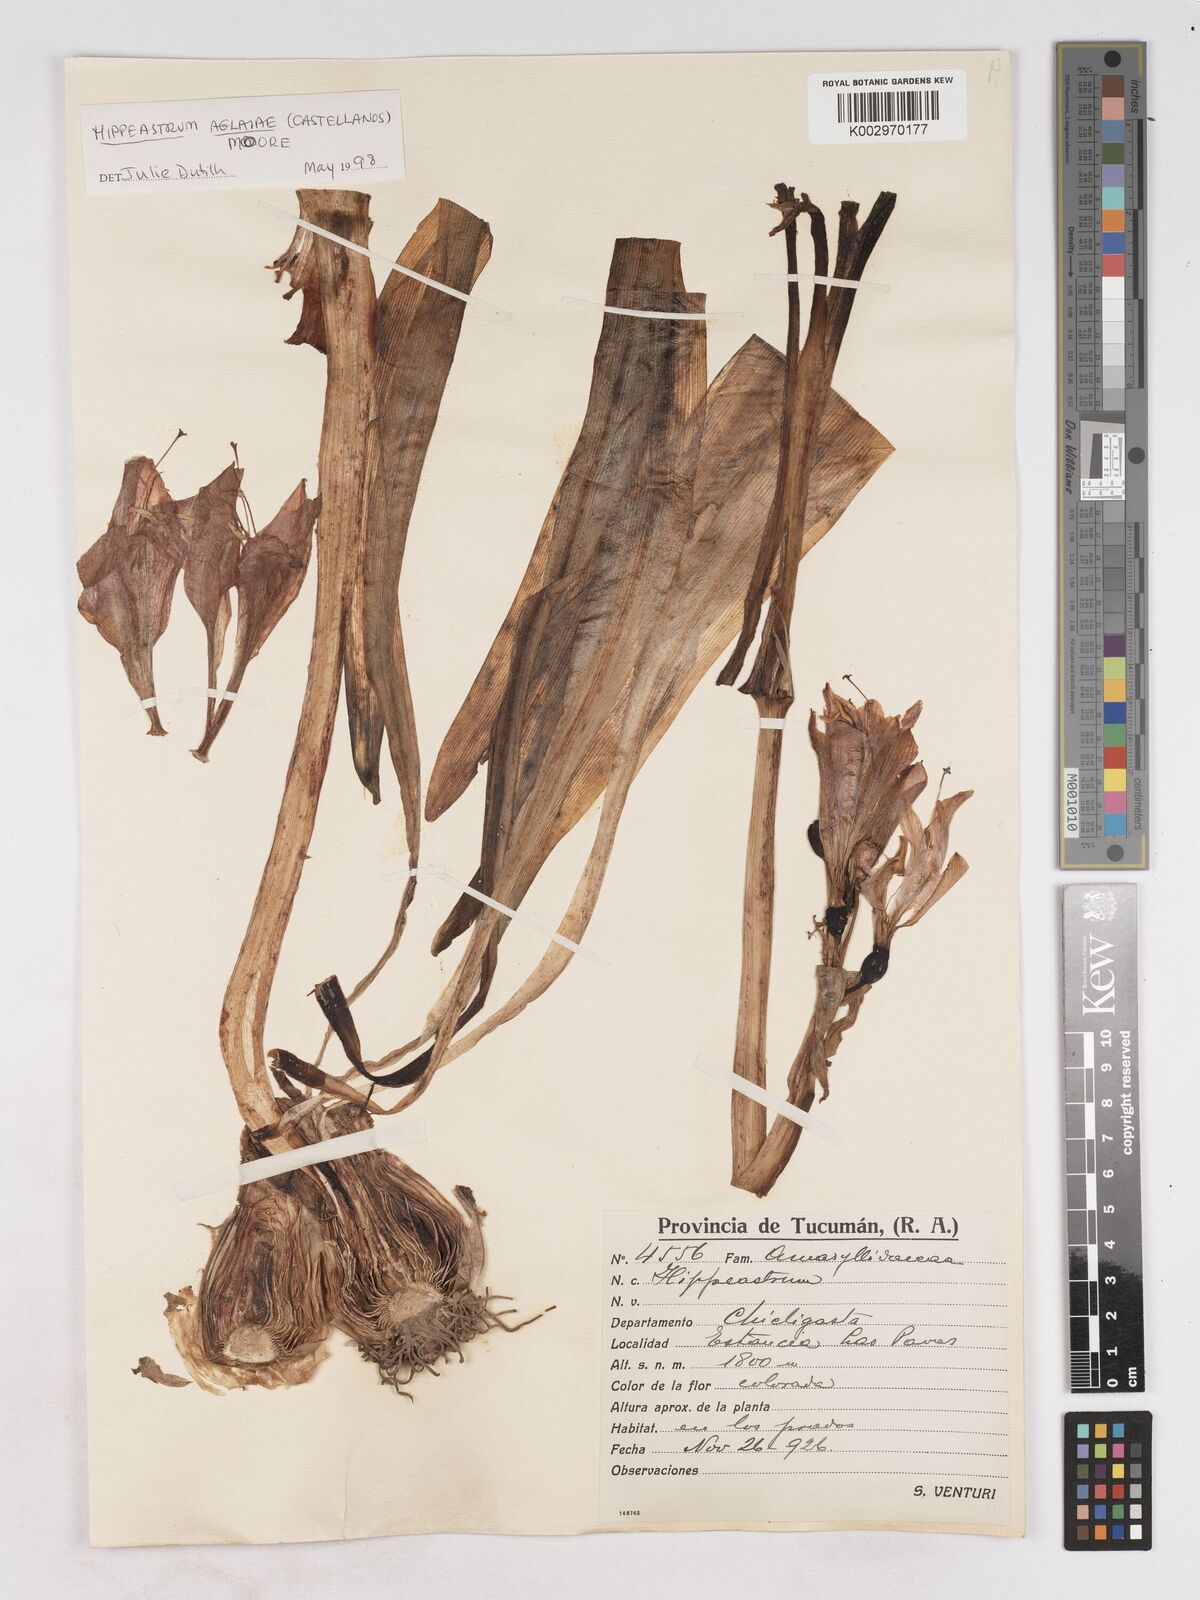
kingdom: Plantae
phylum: Tracheophyta
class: Liliopsida
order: Asparagales
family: Amaryllidaceae
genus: Hippeastrum
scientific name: Hippeastrum
